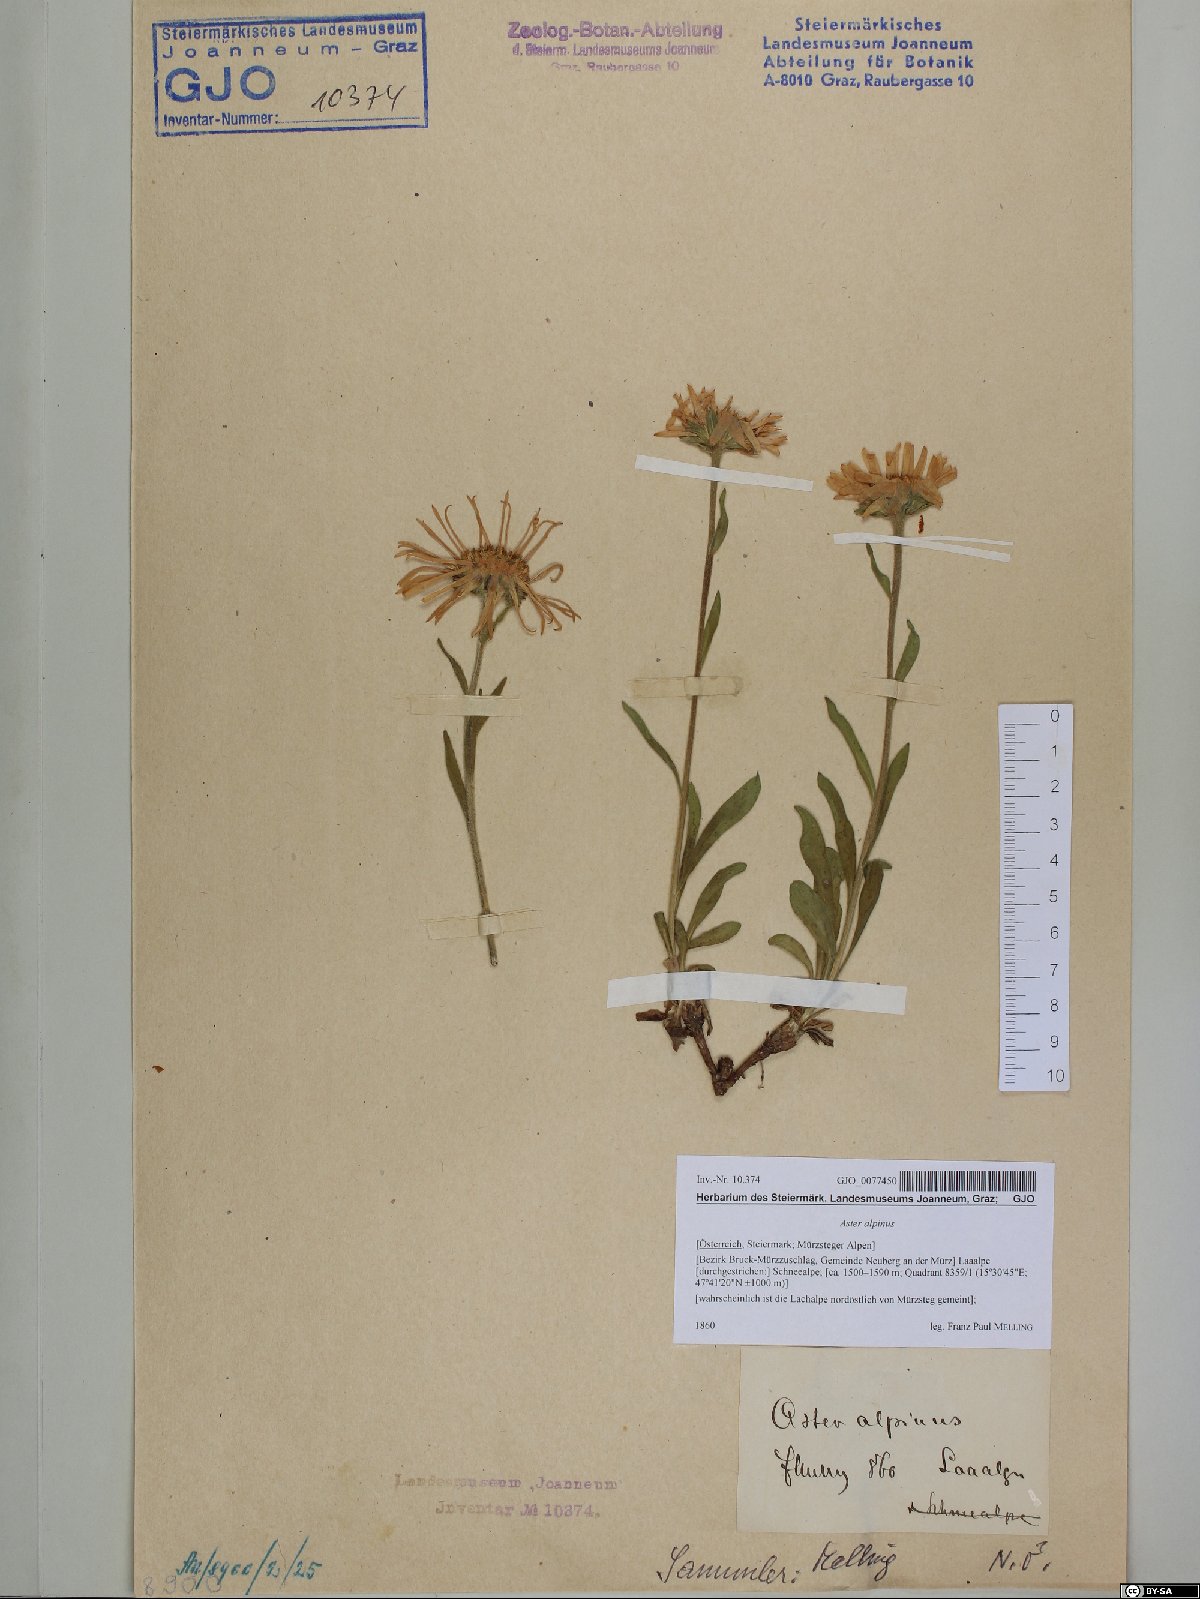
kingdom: Plantae
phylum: Tracheophyta
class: Magnoliopsida
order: Asterales
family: Asteraceae
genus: Aster
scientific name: Aster alpinus
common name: Alpine aster
